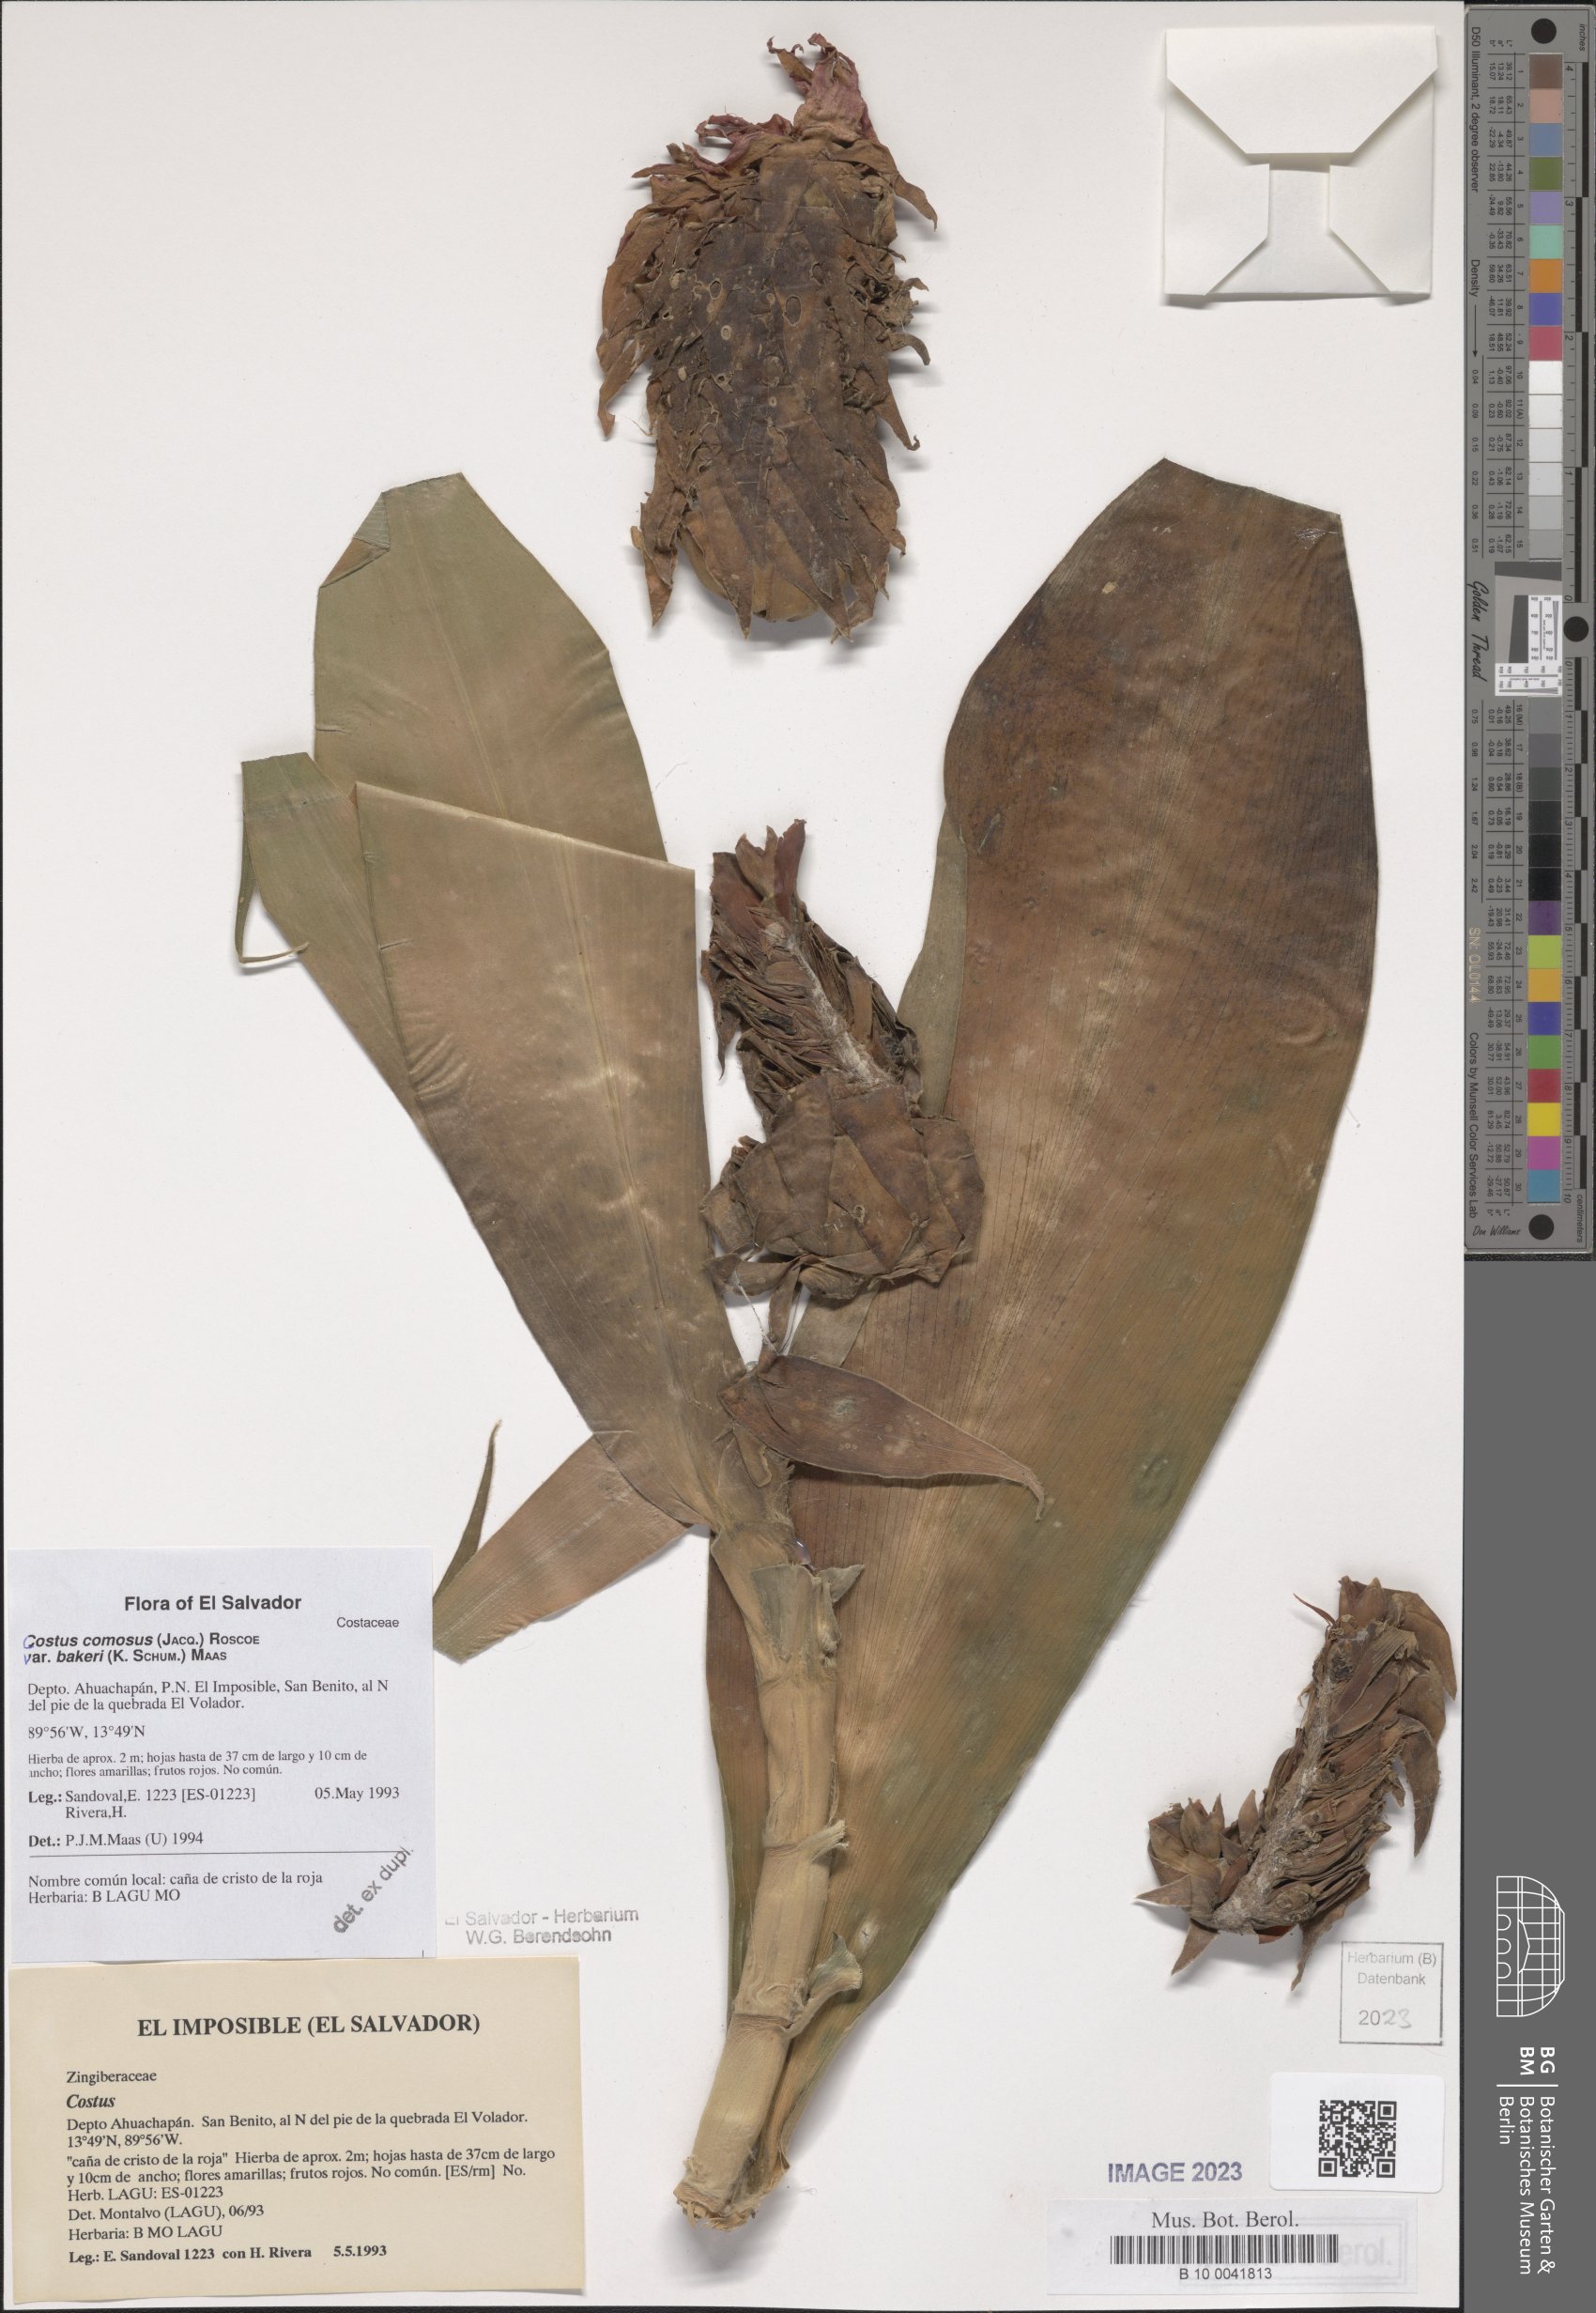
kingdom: Plantae
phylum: Tracheophyta
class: Liliopsida
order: Zingiberales
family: Costaceae
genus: Costus
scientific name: Costus comosus
